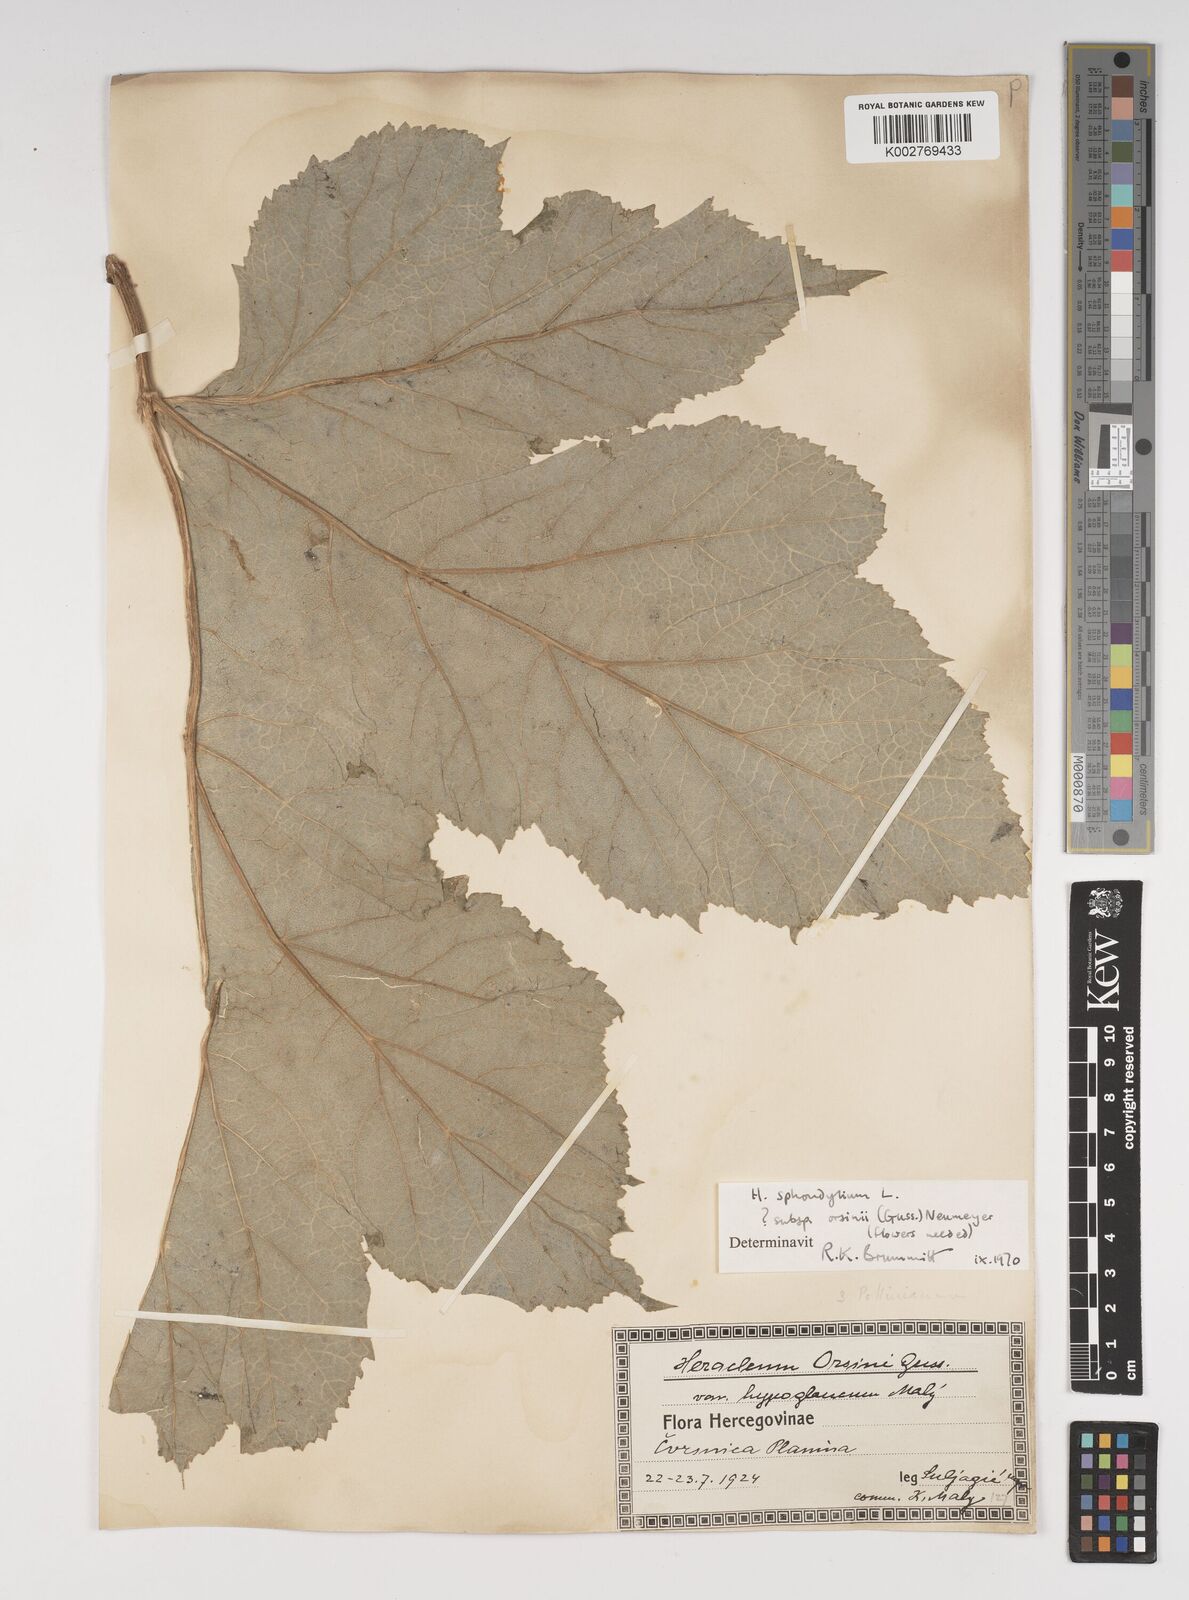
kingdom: Plantae
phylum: Tracheophyta
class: Magnoliopsida
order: Apiales
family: Apiaceae
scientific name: Apiaceae
